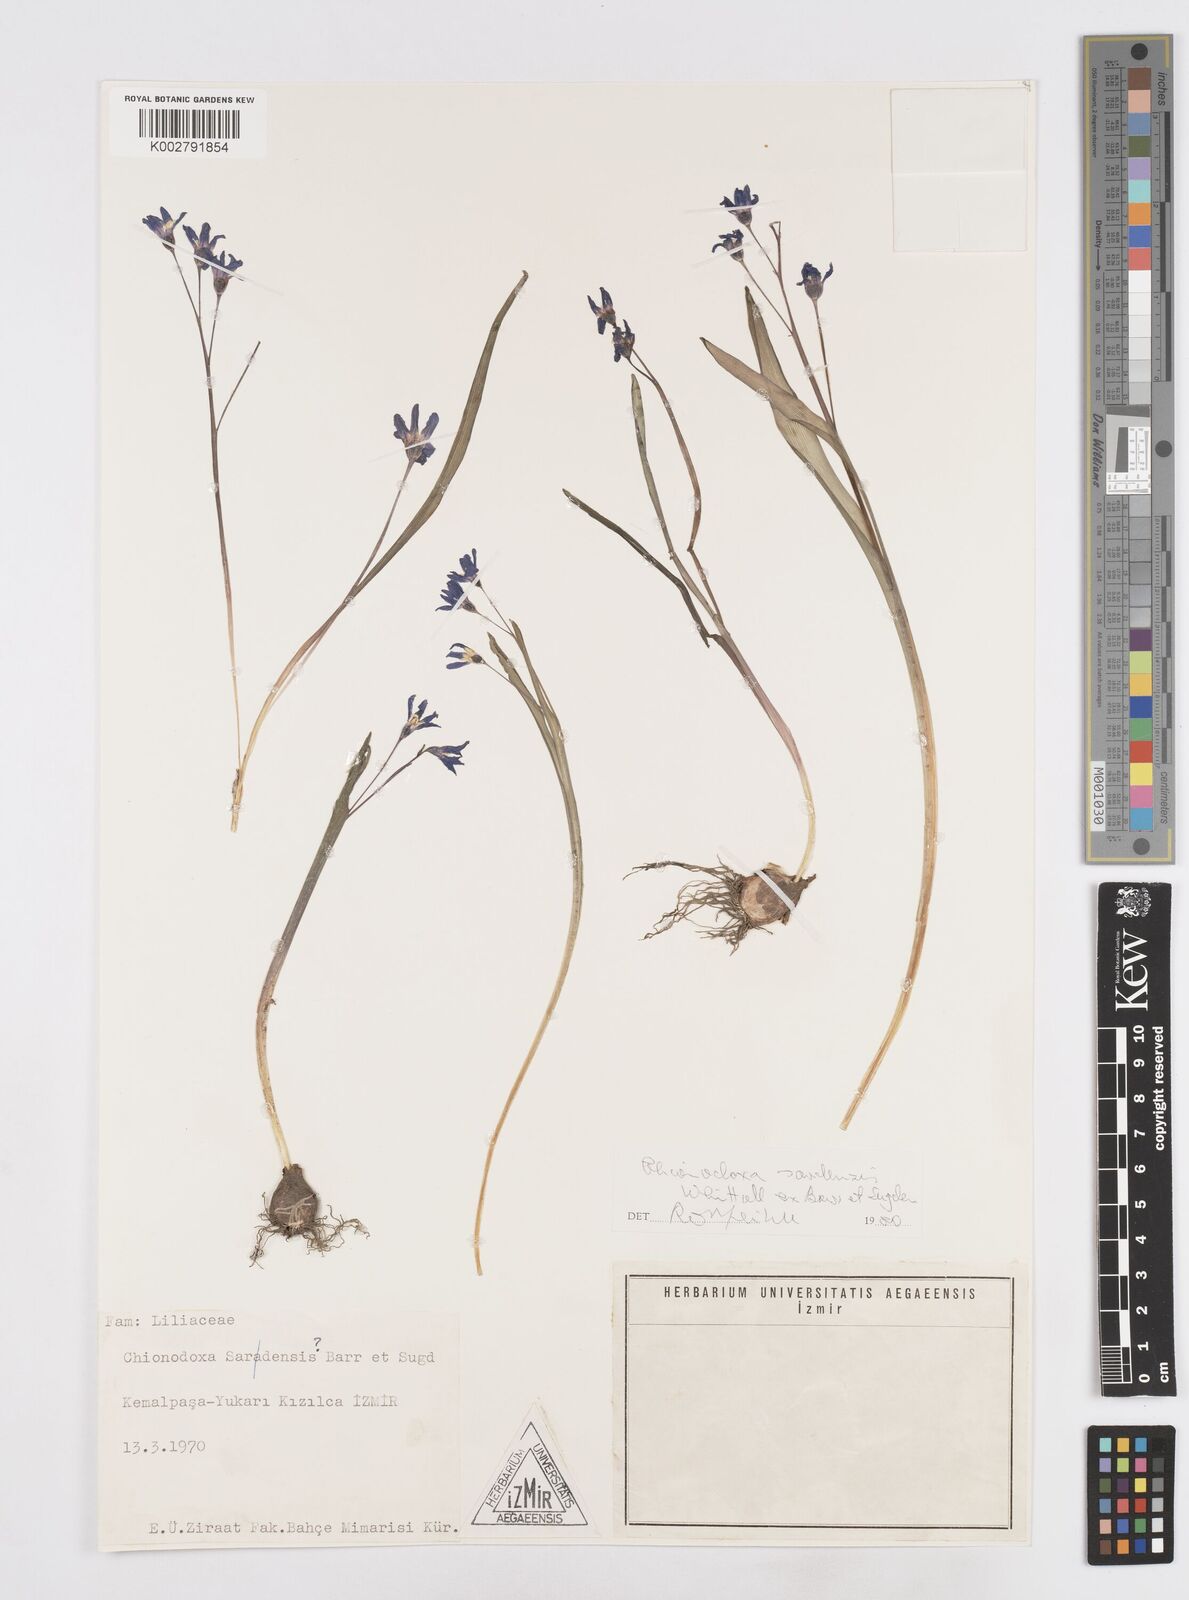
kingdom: Plantae
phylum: Tracheophyta
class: Liliopsida
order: Asparagales
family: Asparagaceae
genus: Scilla
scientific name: Scilla sardensis
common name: Lesser glory-of-the-snow
